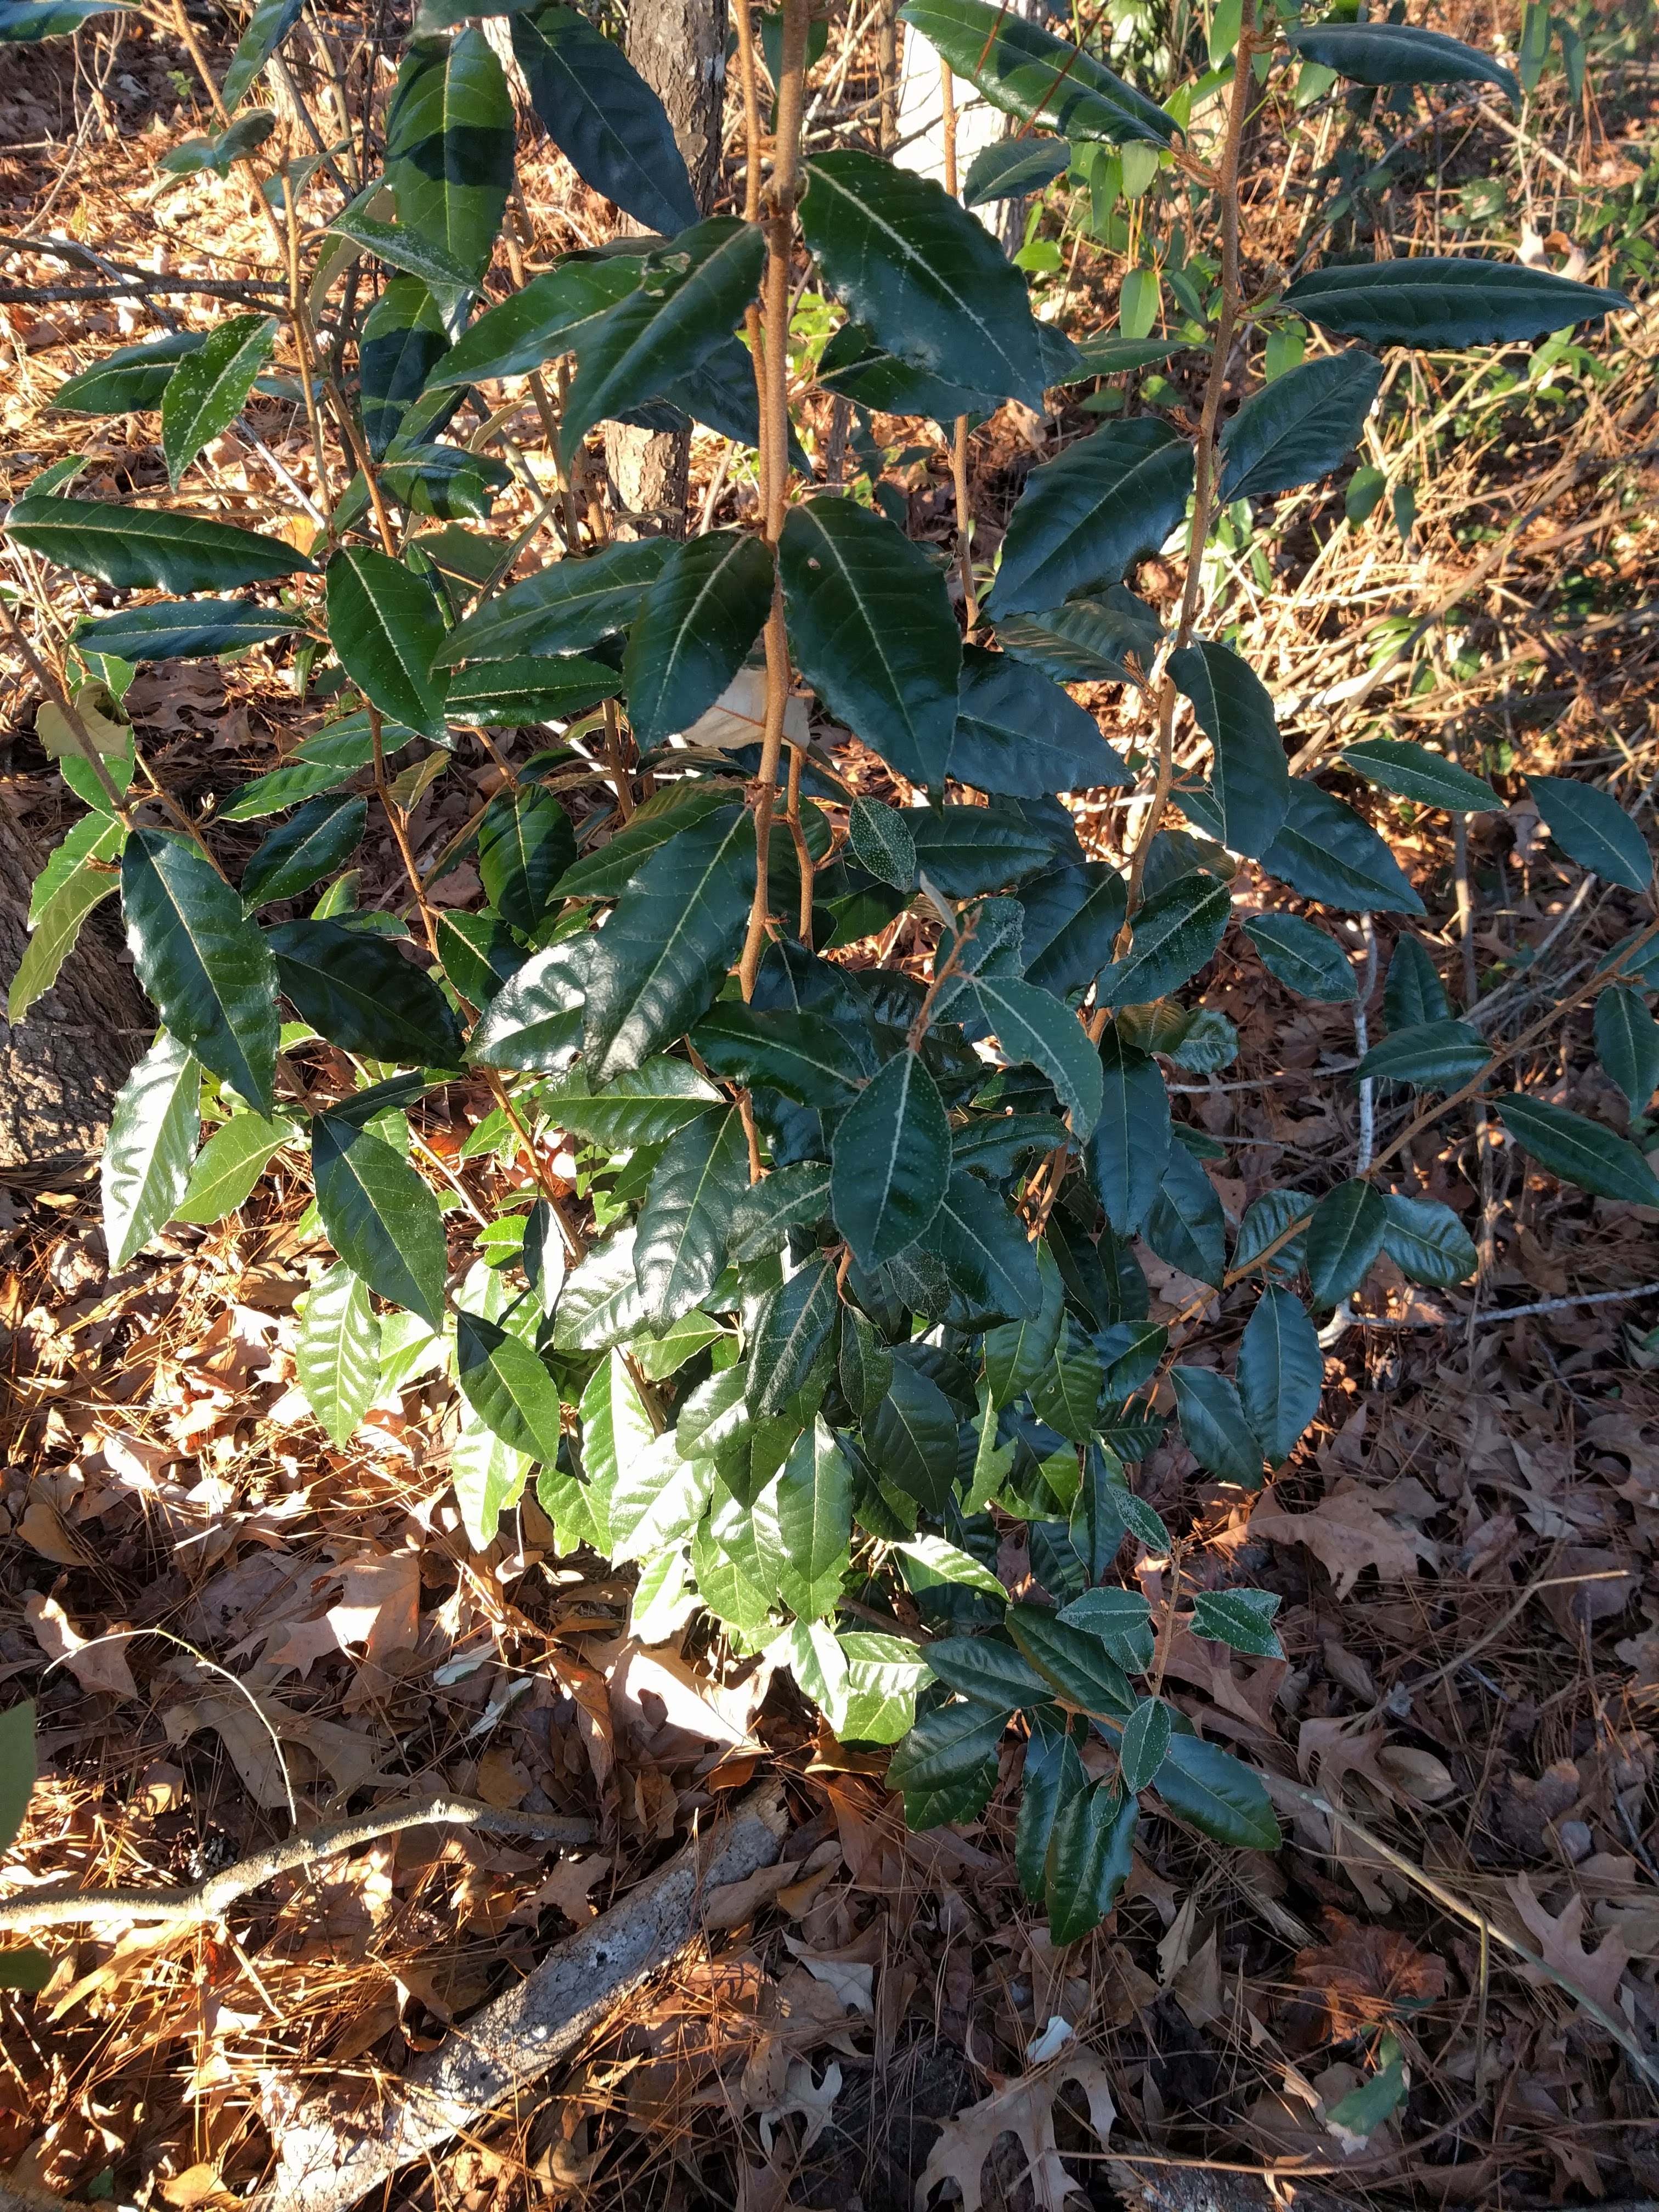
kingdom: Plantae
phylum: Tracheophyta
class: Magnoliopsida
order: Rosales
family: Elaeagnaceae
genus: Elaeagnus
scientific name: Elaeagnus pungens
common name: Spiny oleaster
